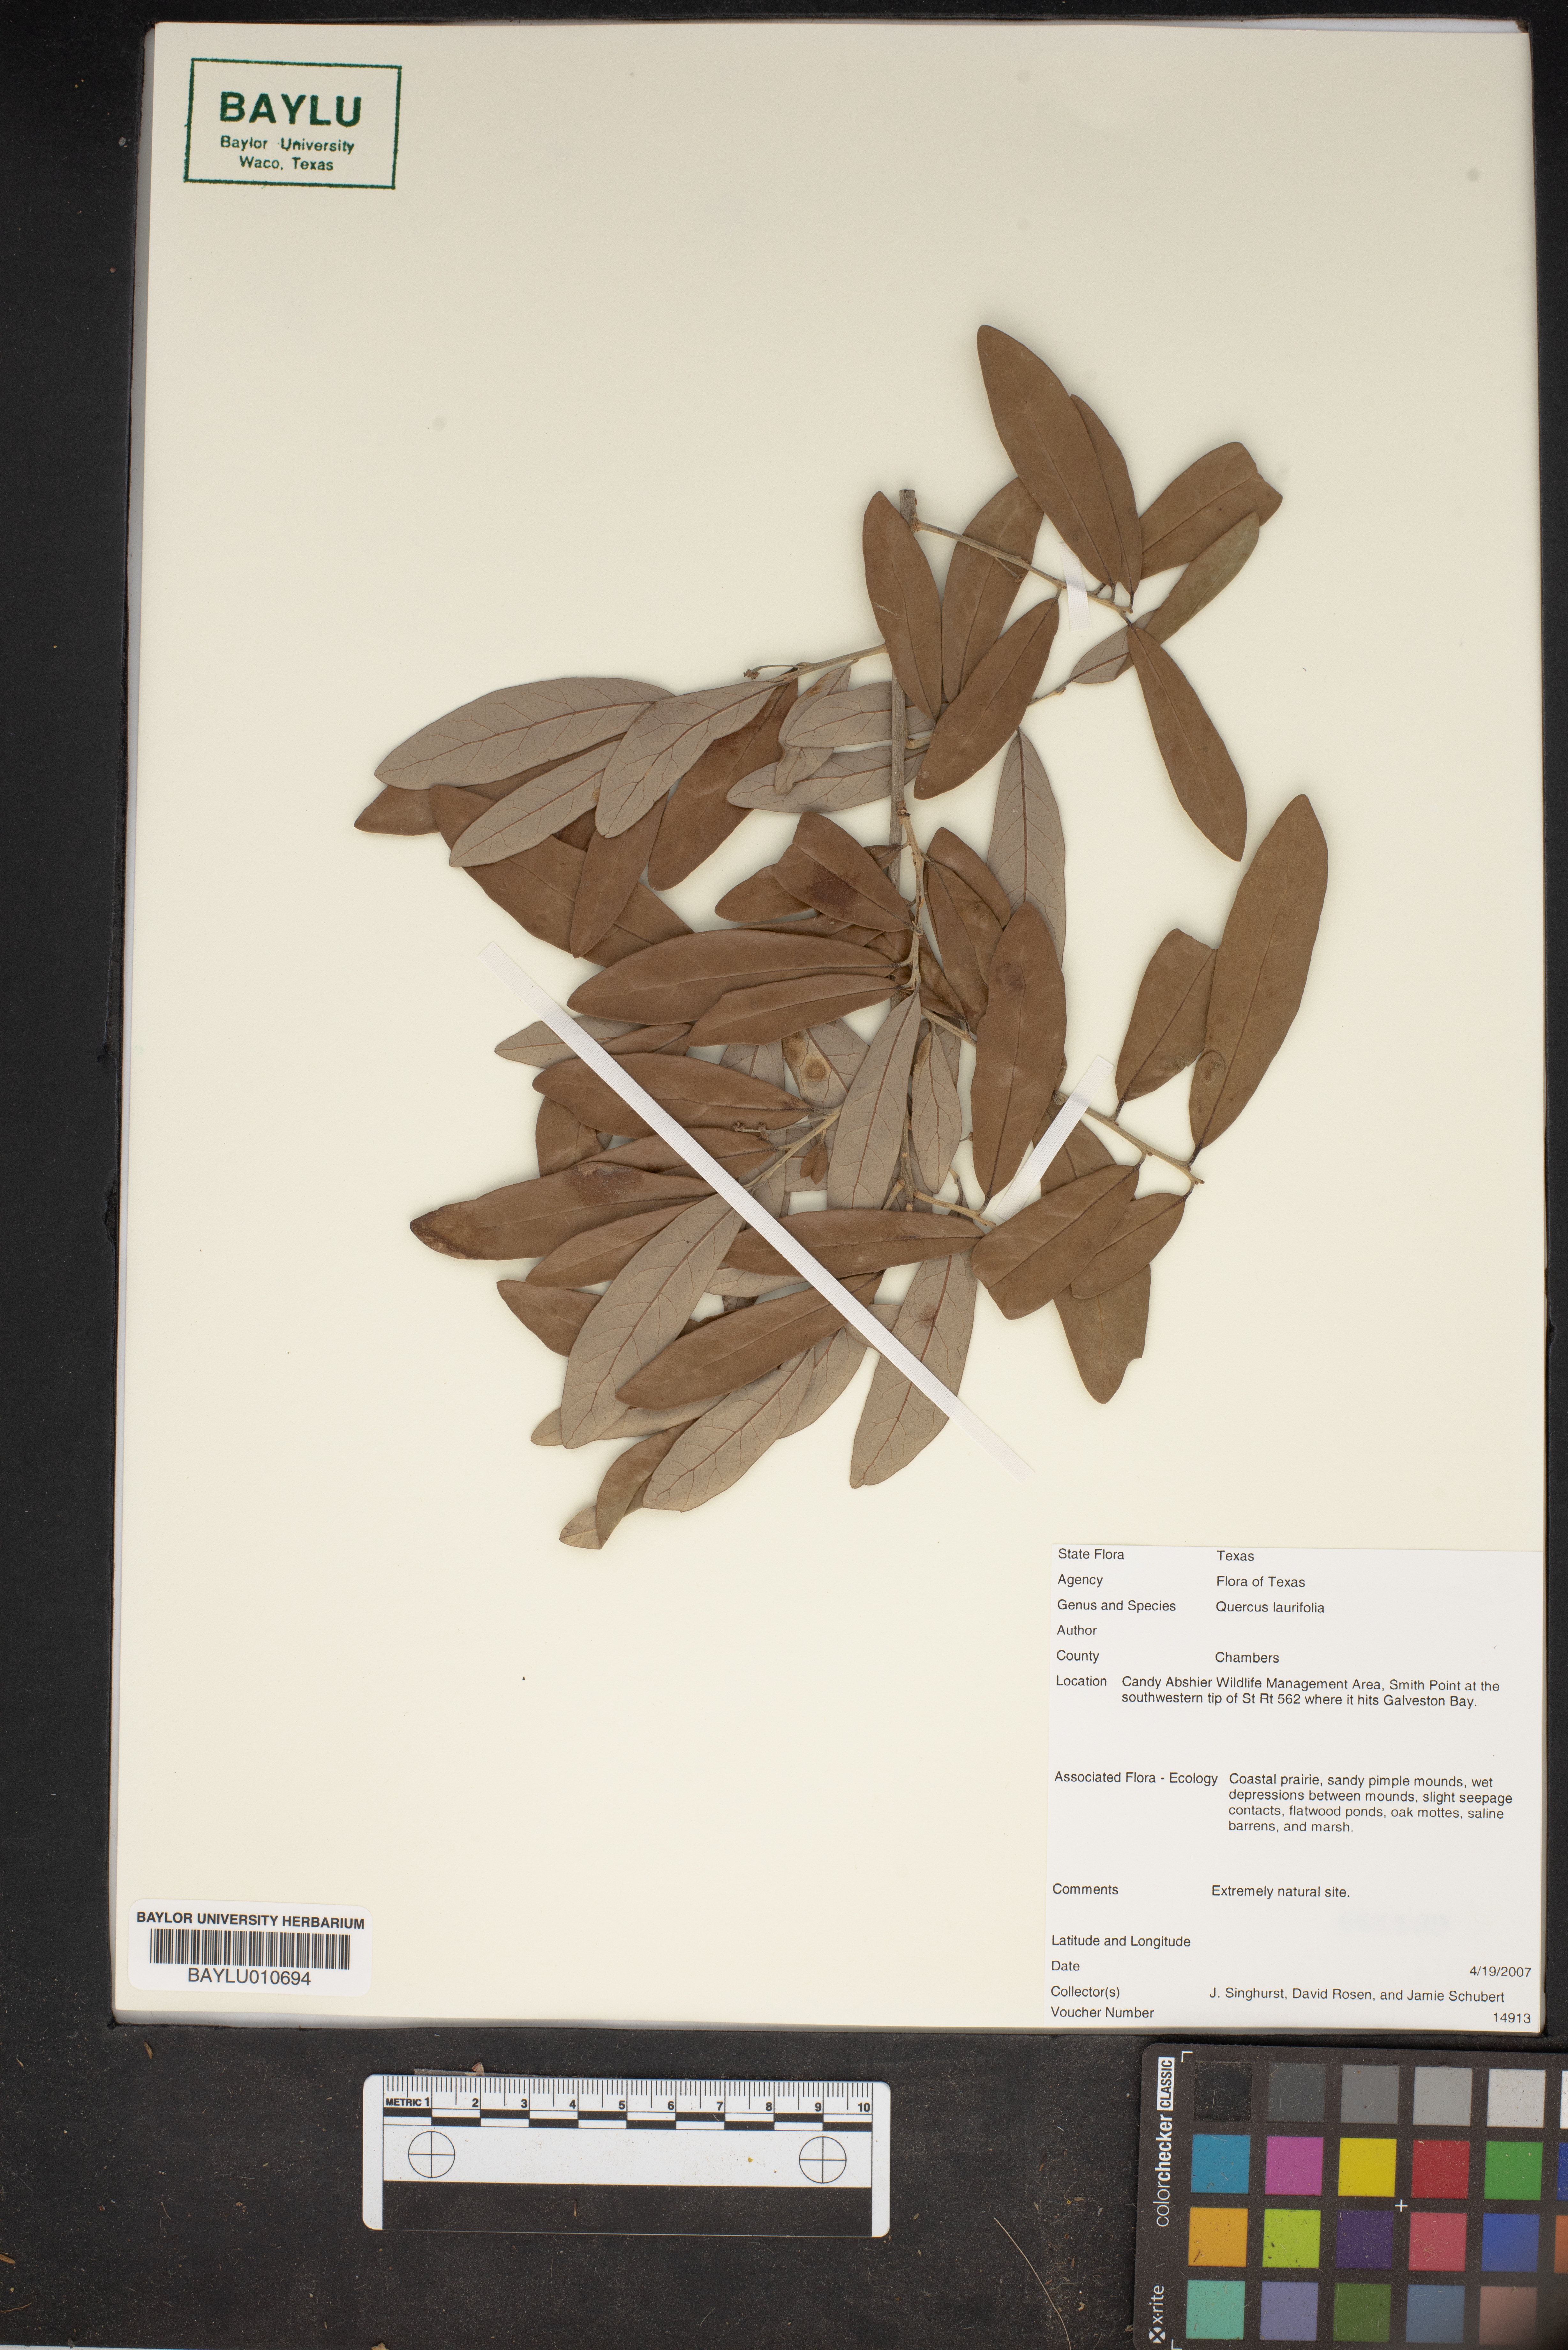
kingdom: Plantae
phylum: Tracheophyta
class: Magnoliopsida
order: Fagales
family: Fagaceae
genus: Quercus
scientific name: Quercus laurifolia
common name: Swamp laurel oak
